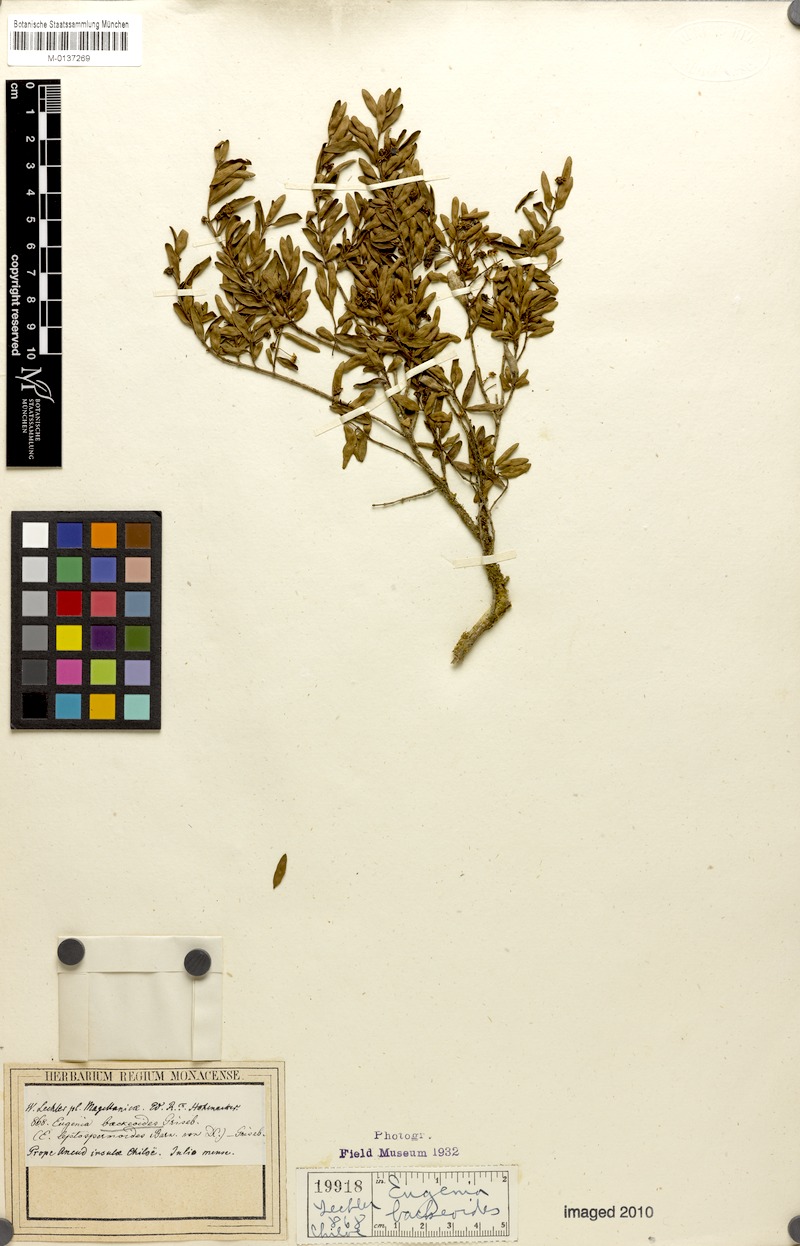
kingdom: Plantae
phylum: Tracheophyta
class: Magnoliopsida
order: Myrtales
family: Myrtaceae
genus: Myrceugenia
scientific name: Myrceugenia parvifolia
